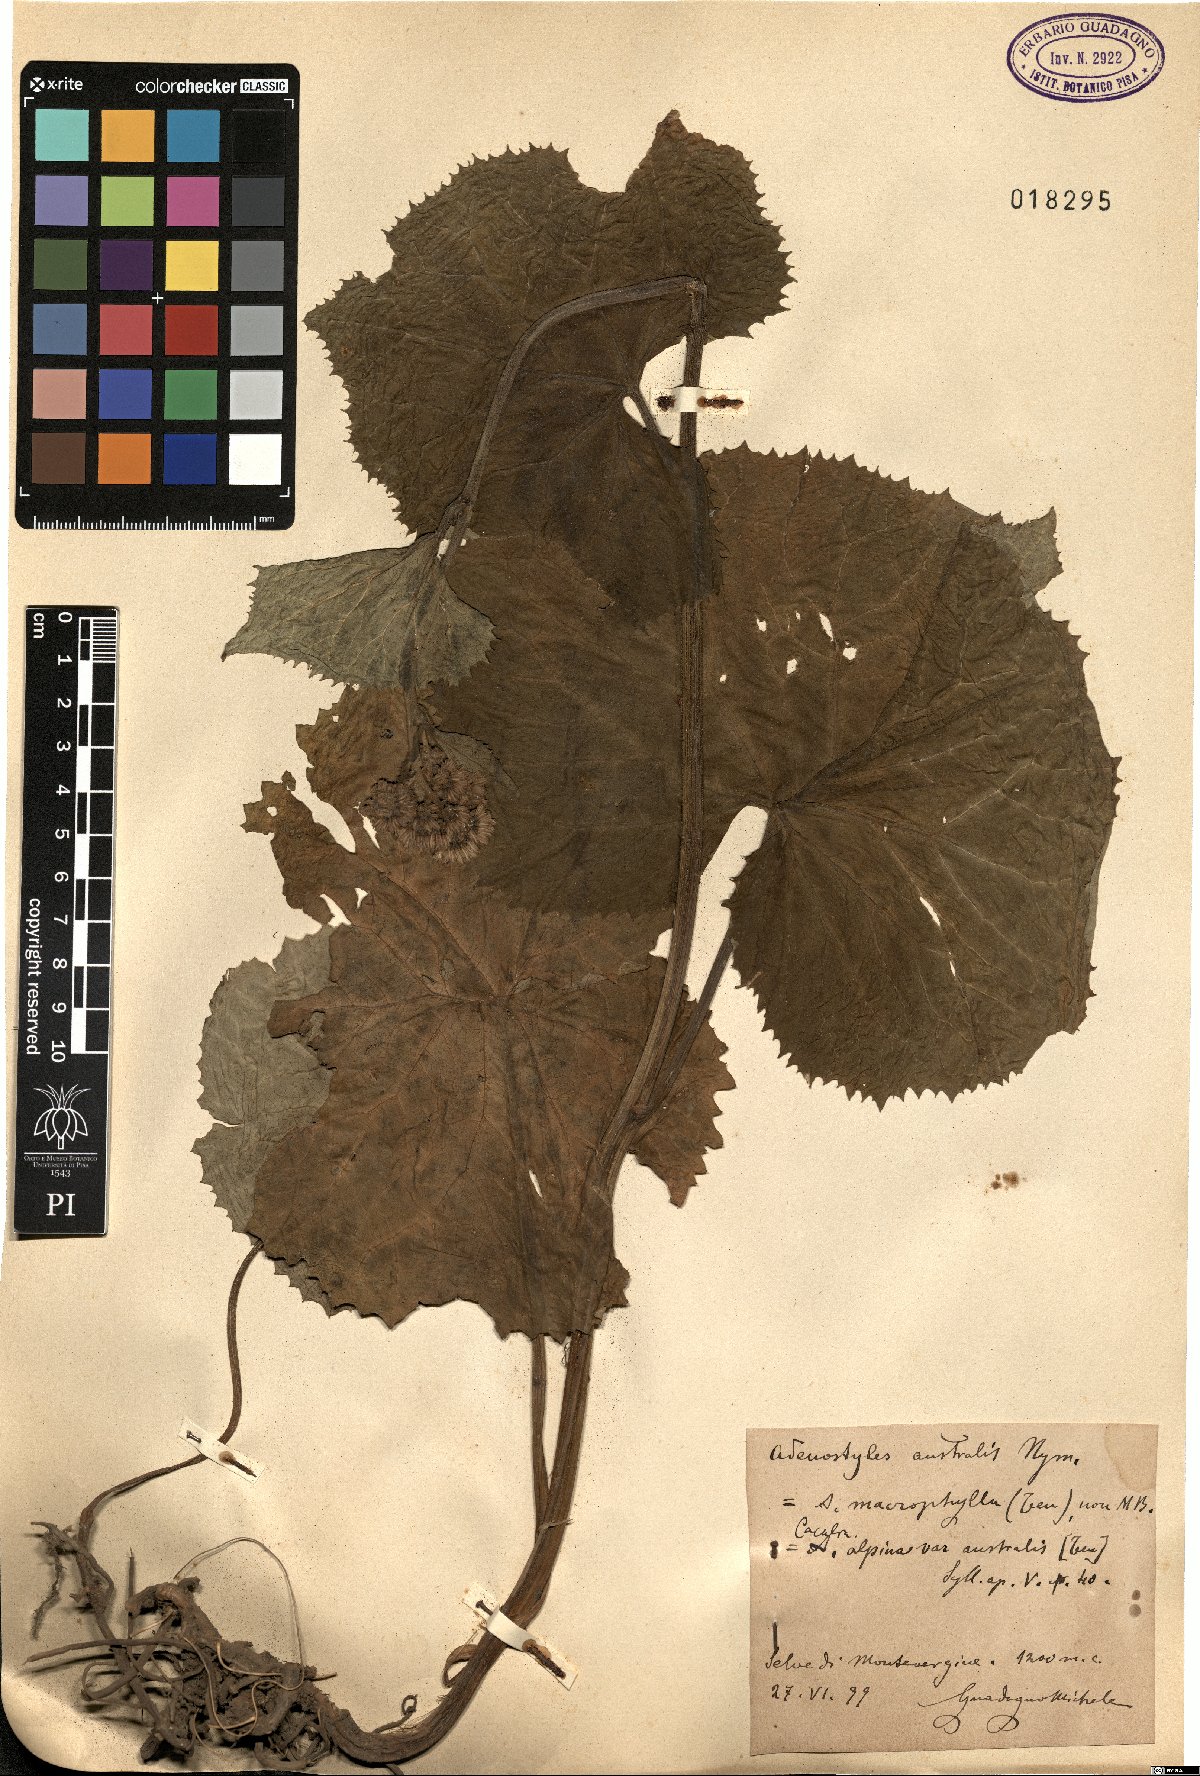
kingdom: Plantae
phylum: Tracheophyta
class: Magnoliopsida
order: Asterales
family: Asteraceae
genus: Adenostyles
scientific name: Adenostyles australis
